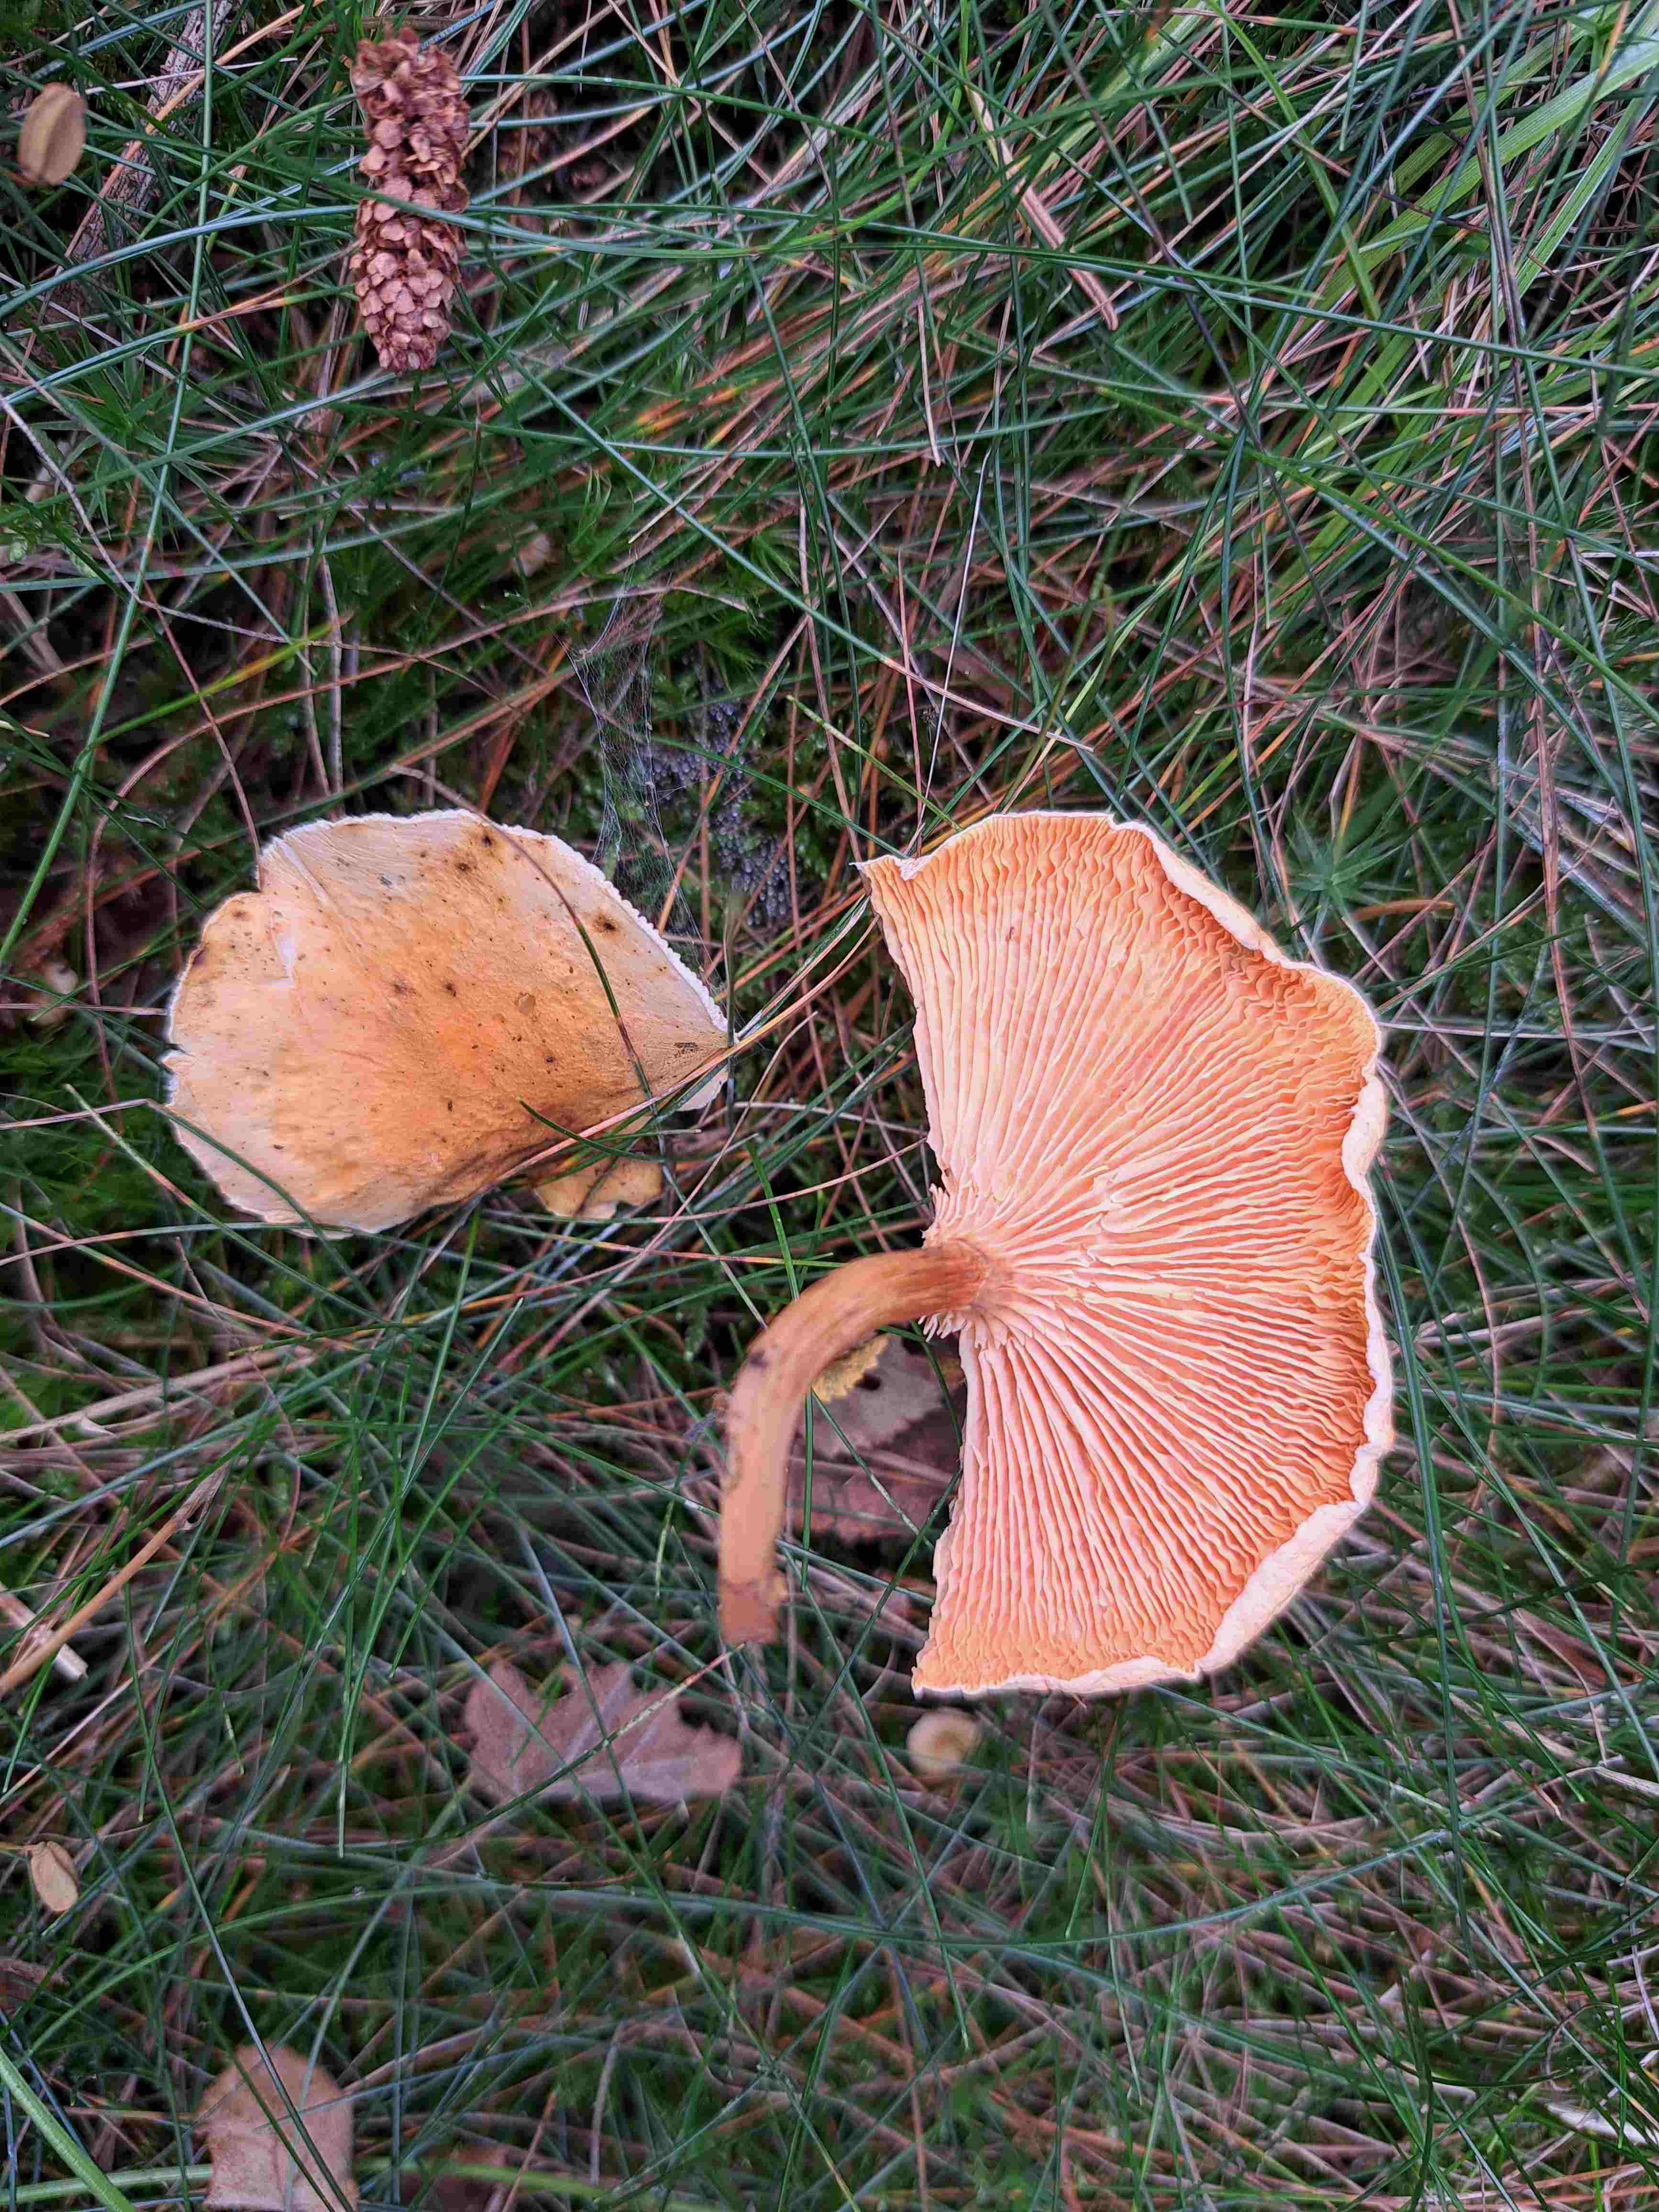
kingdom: Fungi
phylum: Basidiomycota
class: Agaricomycetes
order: Boletales
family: Hygrophoropsidaceae
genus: Hygrophoropsis
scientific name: Hygrophoropsis aurantiaca
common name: almindelig orangekantarel
